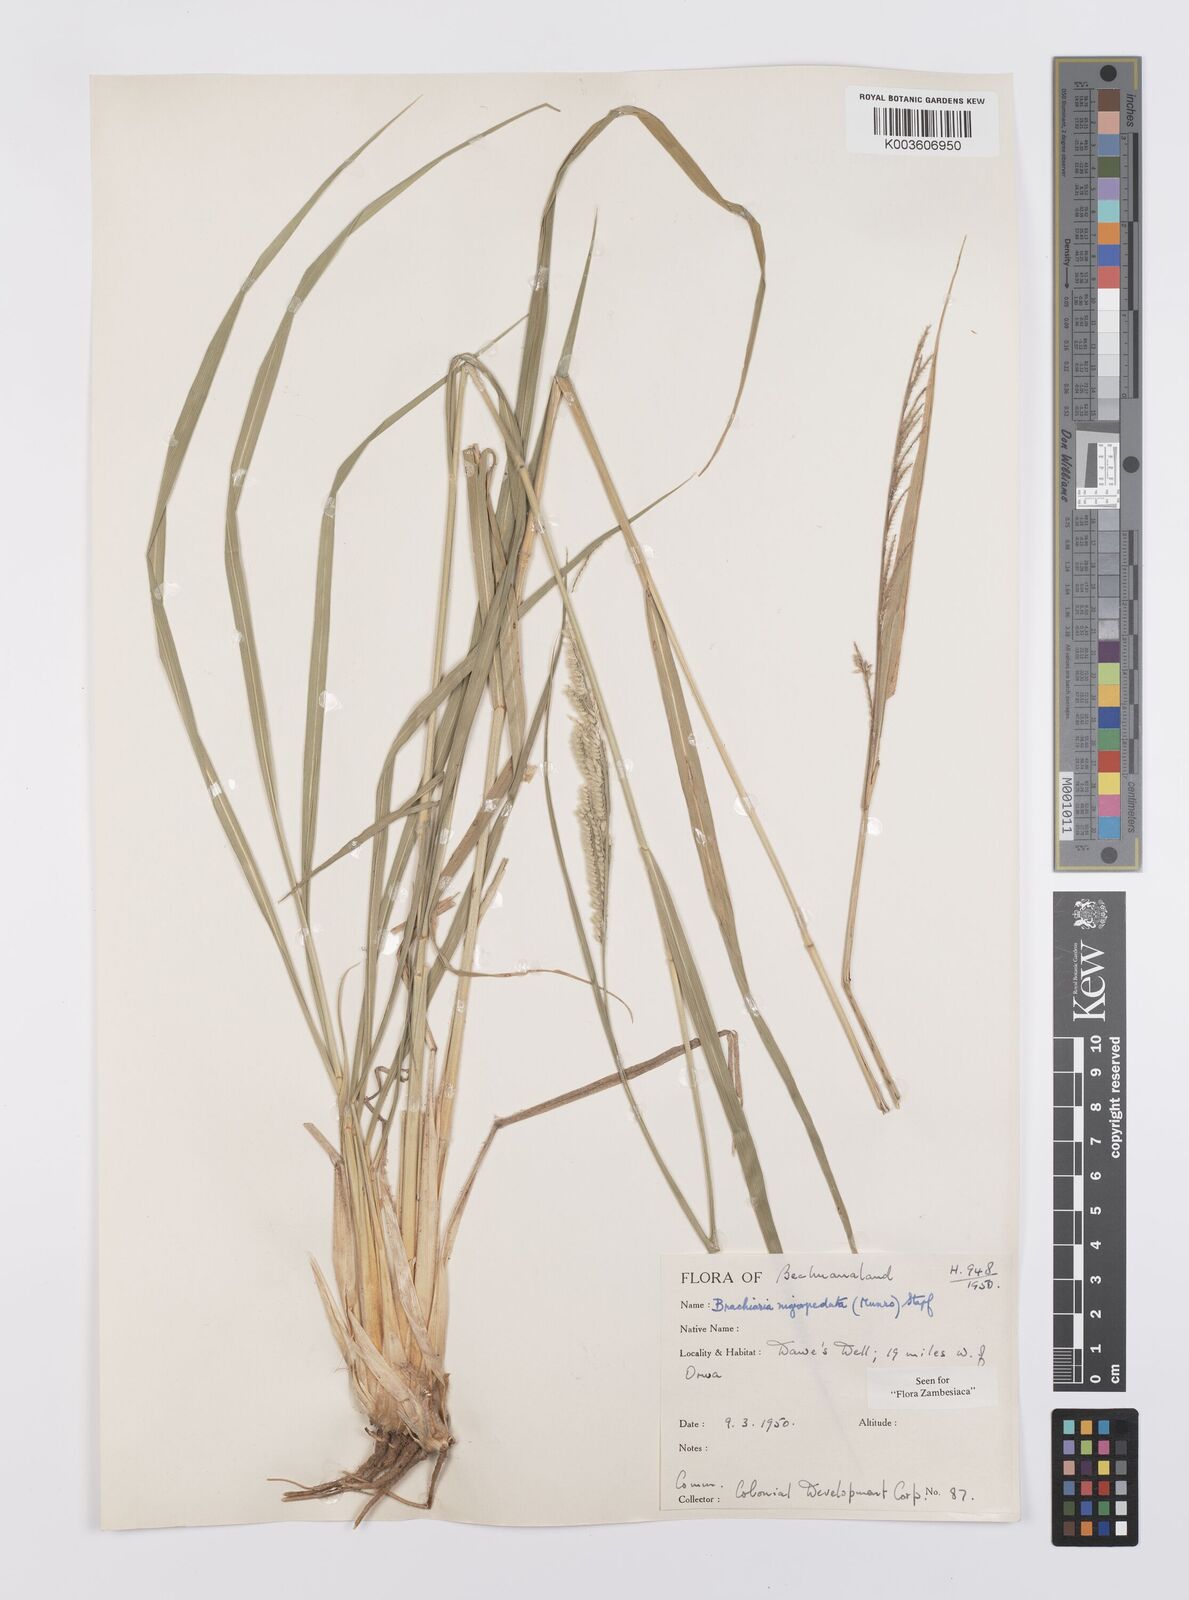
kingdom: Plantae
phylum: Tracheophyta
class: Liliopsida
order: Poales
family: Poaceae
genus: Urochloa
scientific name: Urochloa nigropedata
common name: Spotted signal grass
